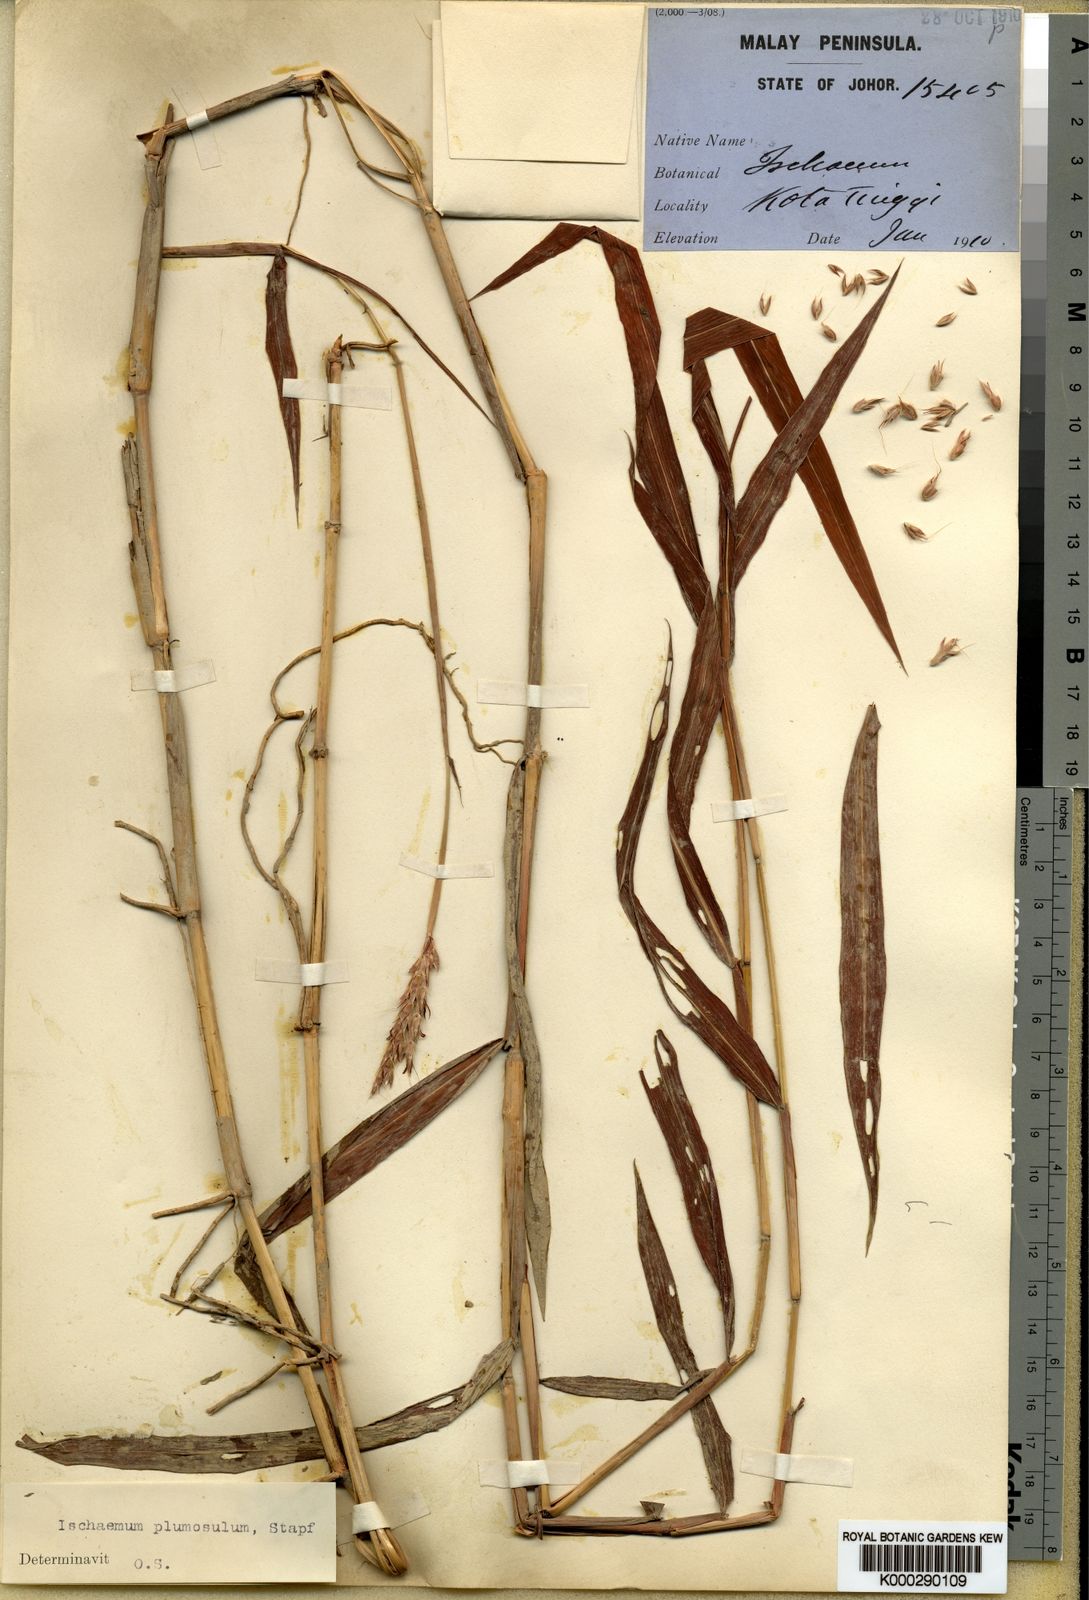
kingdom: Plantae
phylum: Tracheophyta
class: Liliopsida
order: Poales
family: Poaceae
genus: Ischaemum
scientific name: Ischaemum polystachyum
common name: Paddle grass
